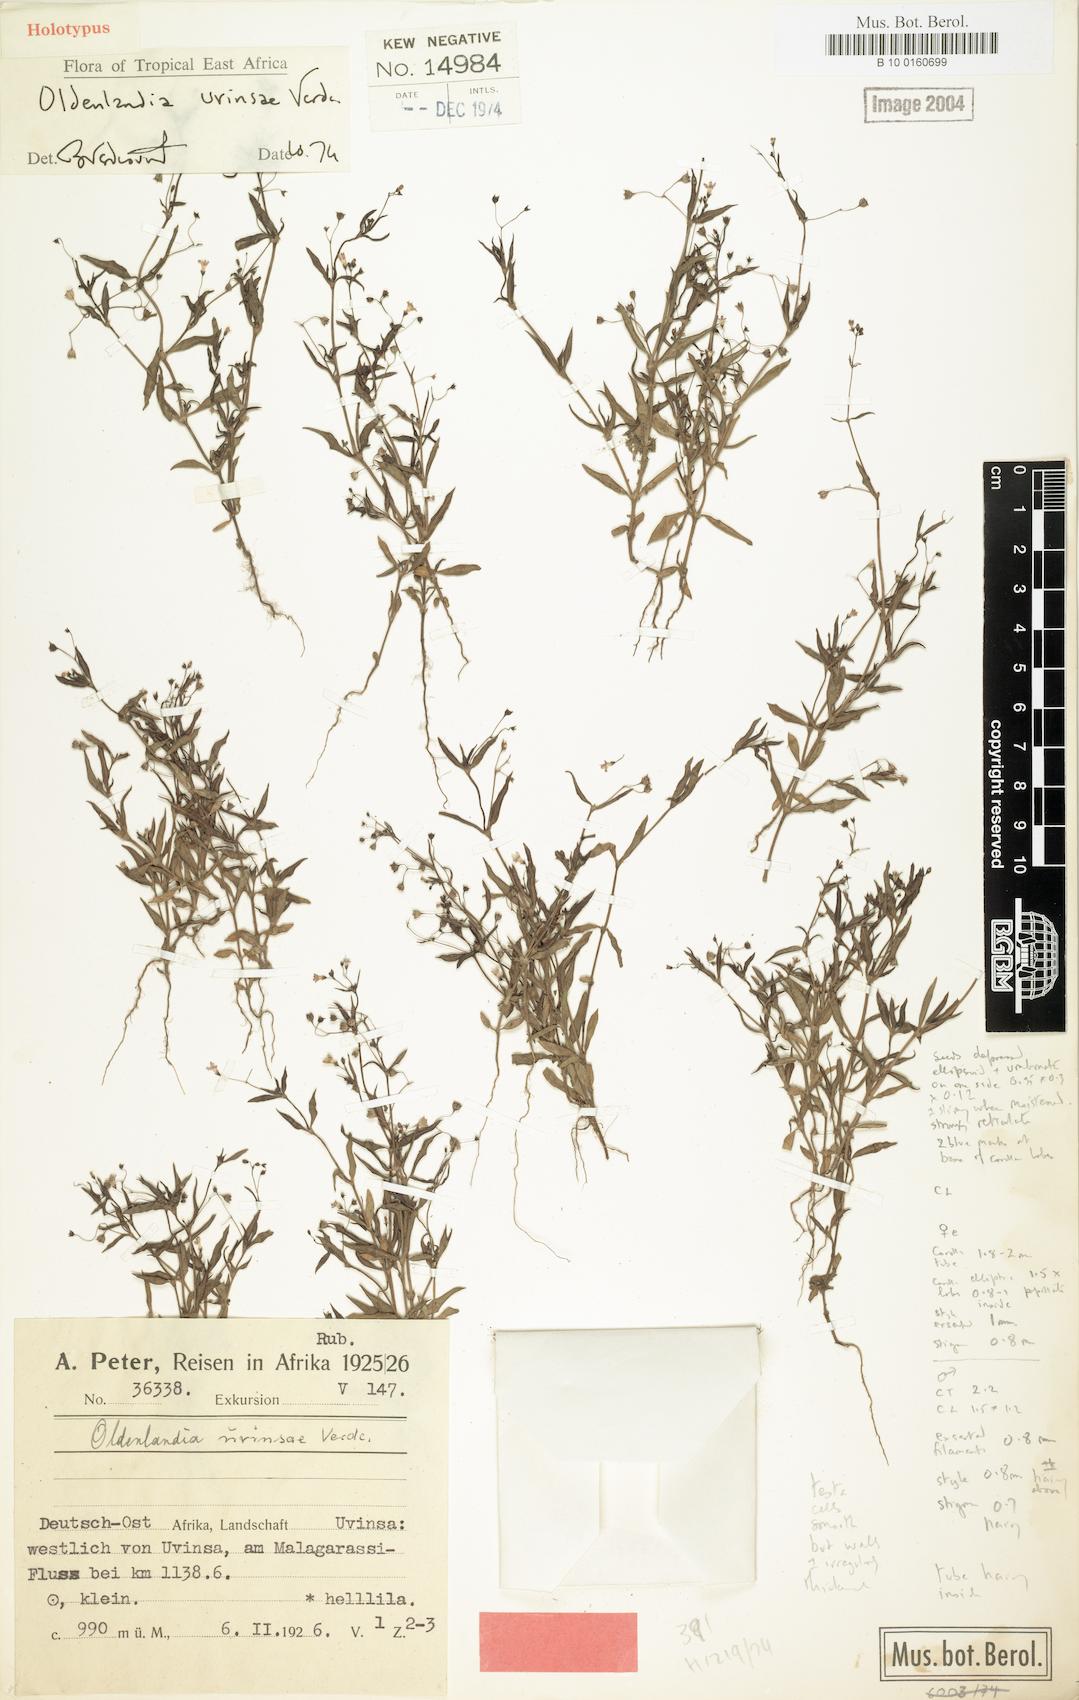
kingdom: Plantae
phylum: Tracheophyta
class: Magnoliopsida
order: Gentianales
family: Rubiaceae
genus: Oldenlandia
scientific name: Oldenlandia uvinsae
